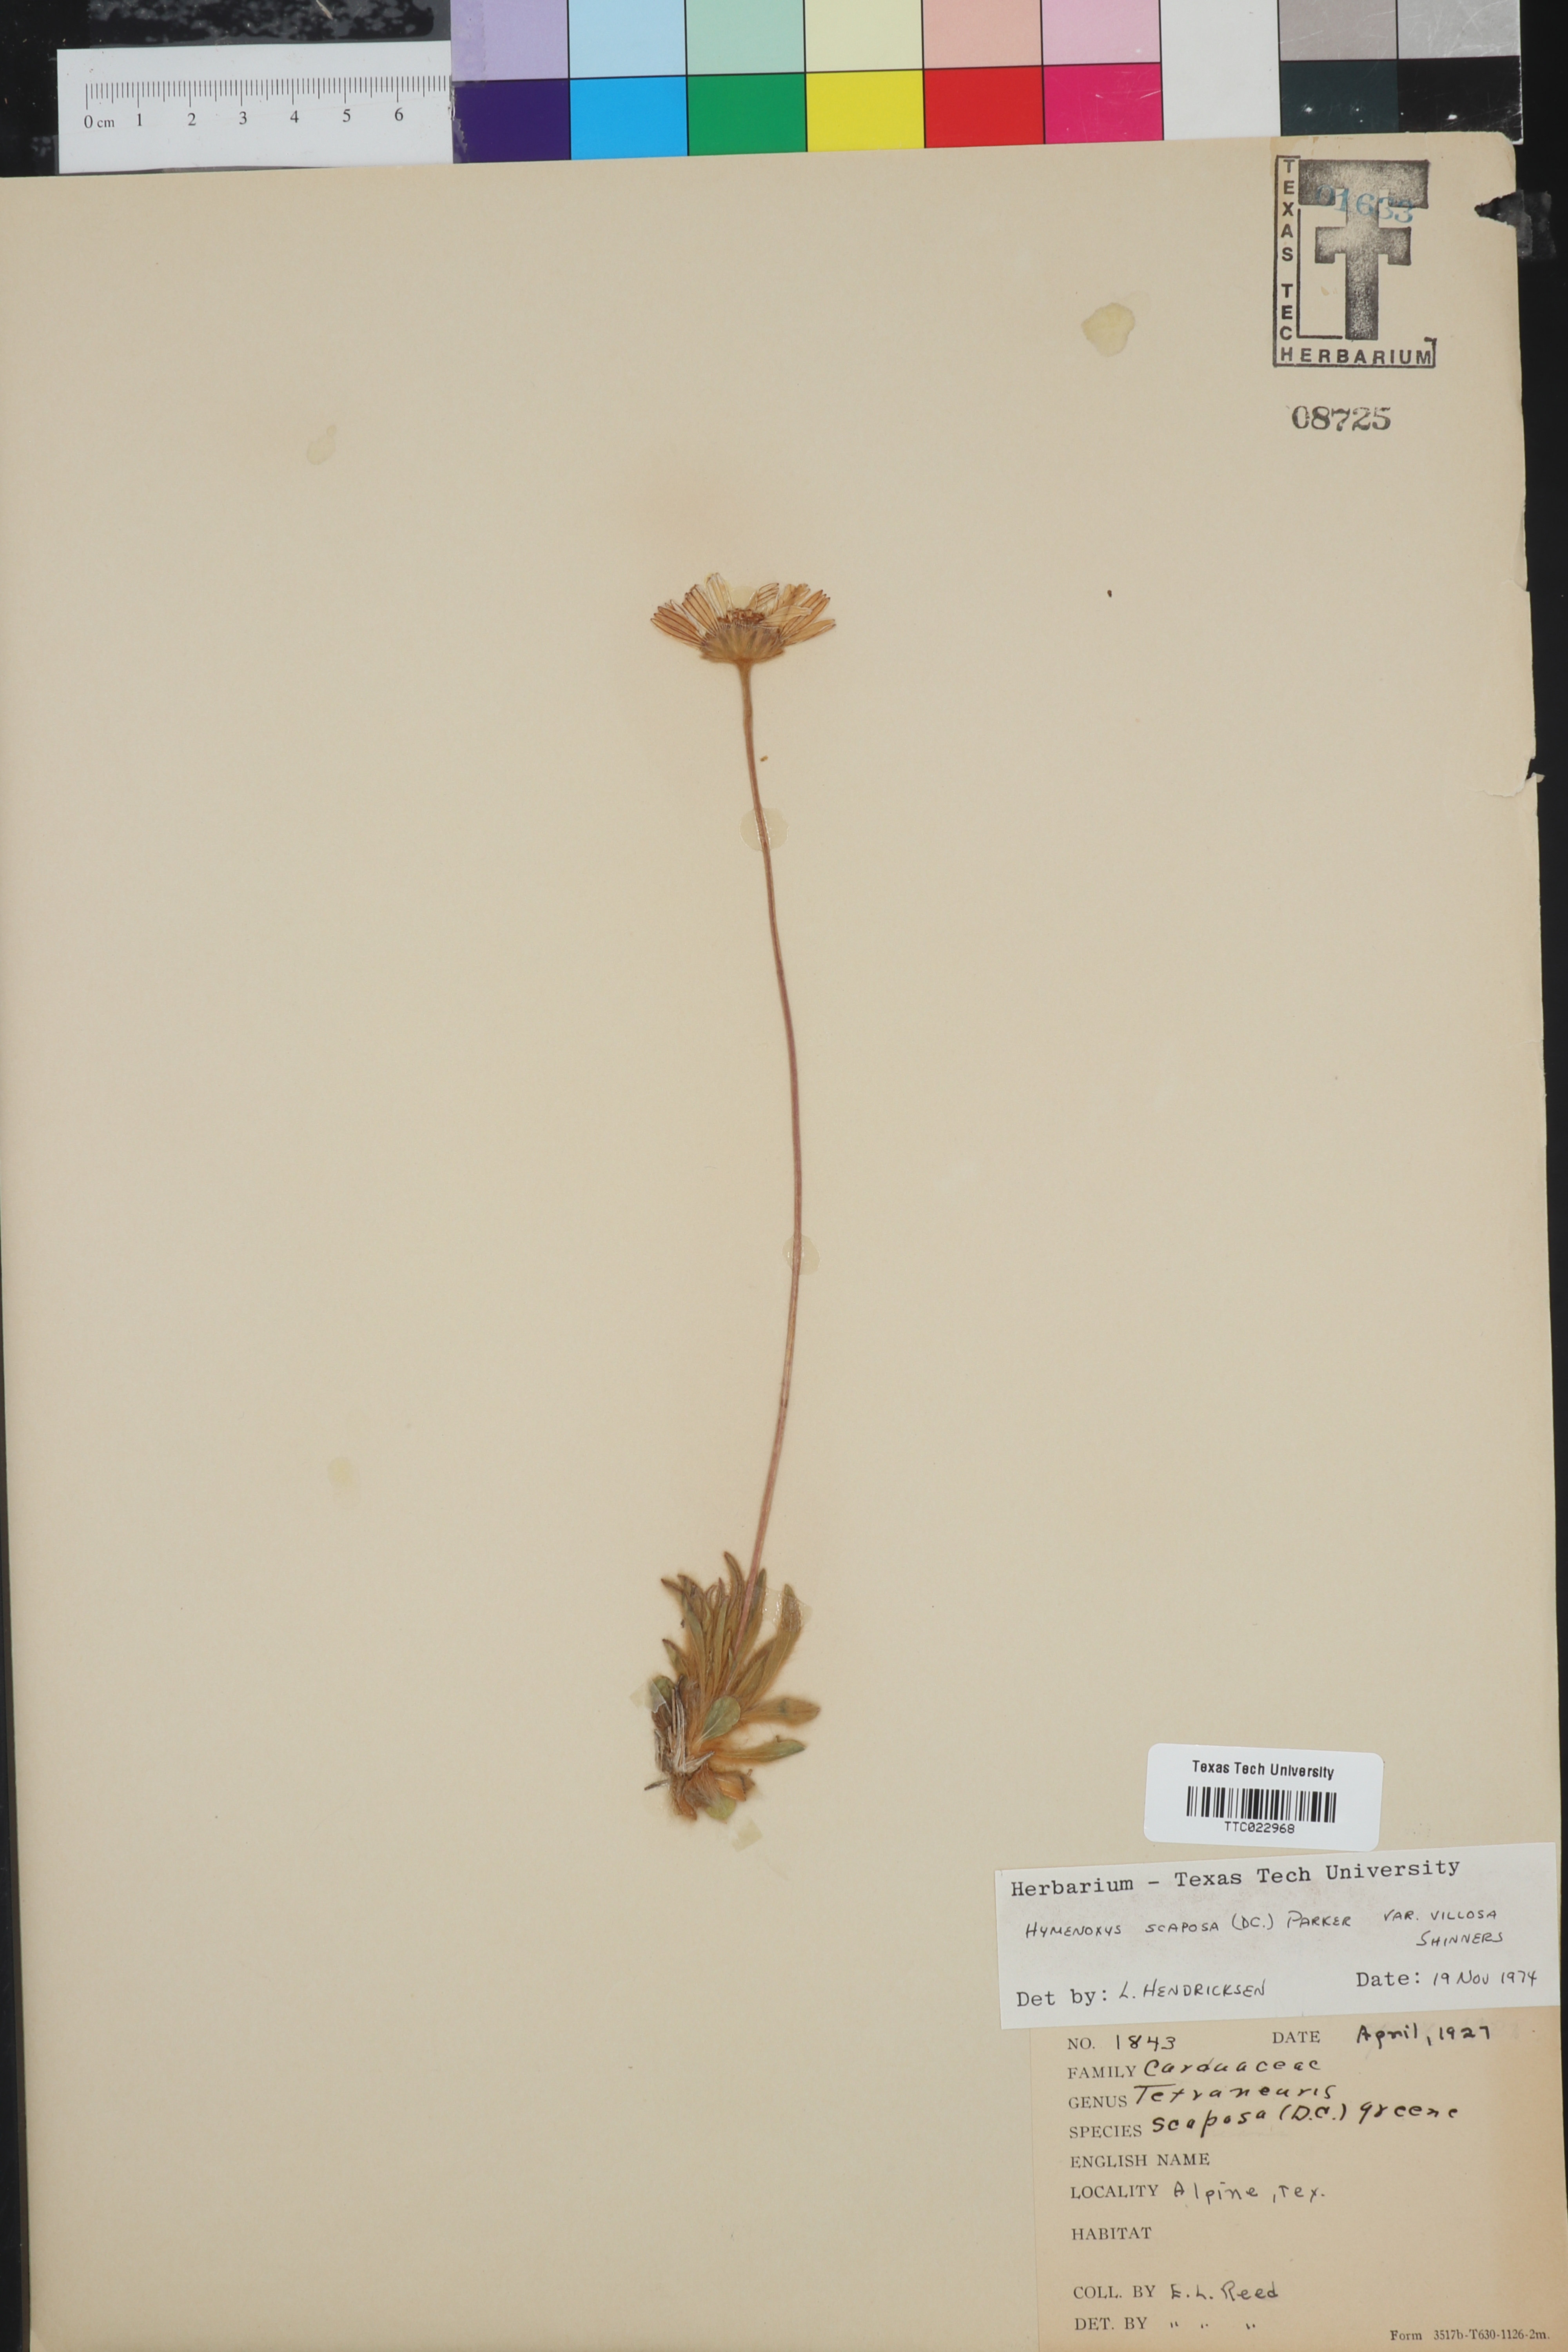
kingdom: Plantae
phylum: Tracheophyta
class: Magnoliopsida
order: Asterales
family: Asteraceae
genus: Tetraneuris
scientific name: Tetraneuris scaposa
